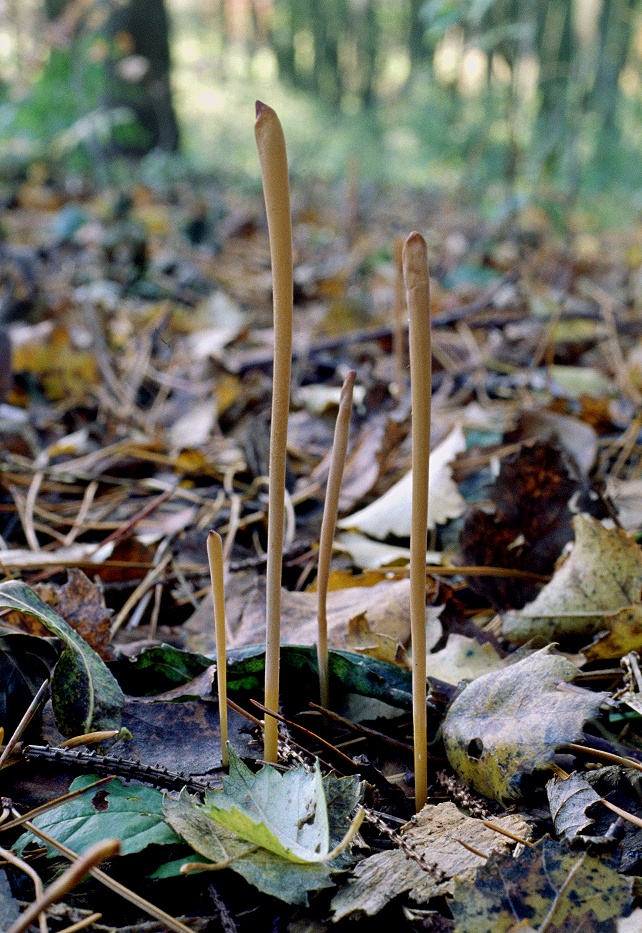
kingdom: Fungi
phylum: Basidiomycota
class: Agaricomycetes
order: Agaricales
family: Typhulaceae
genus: Typhula
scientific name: Typhula fistulosa
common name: pibet rørkølle
